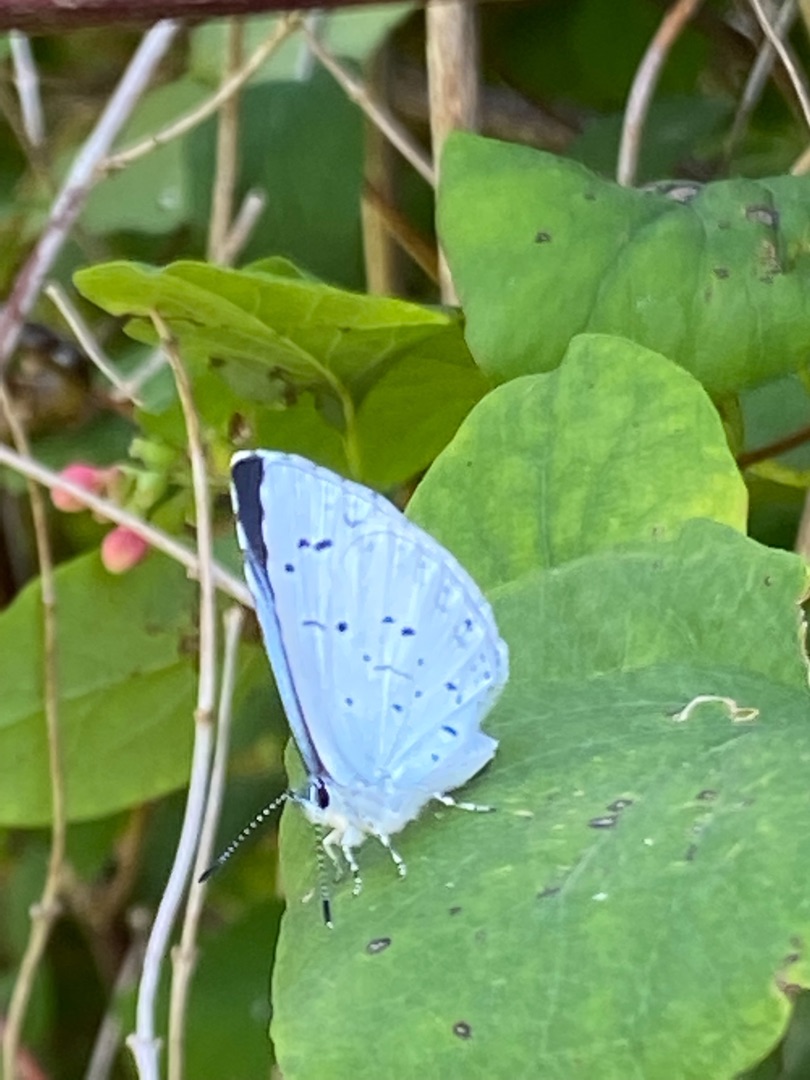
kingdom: Animalia
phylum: Arthropoda
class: Insecta
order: Lepidoptera
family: Lycaenidae
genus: Celastrina
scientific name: Celastrina argiolus
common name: Skovblåfugl
